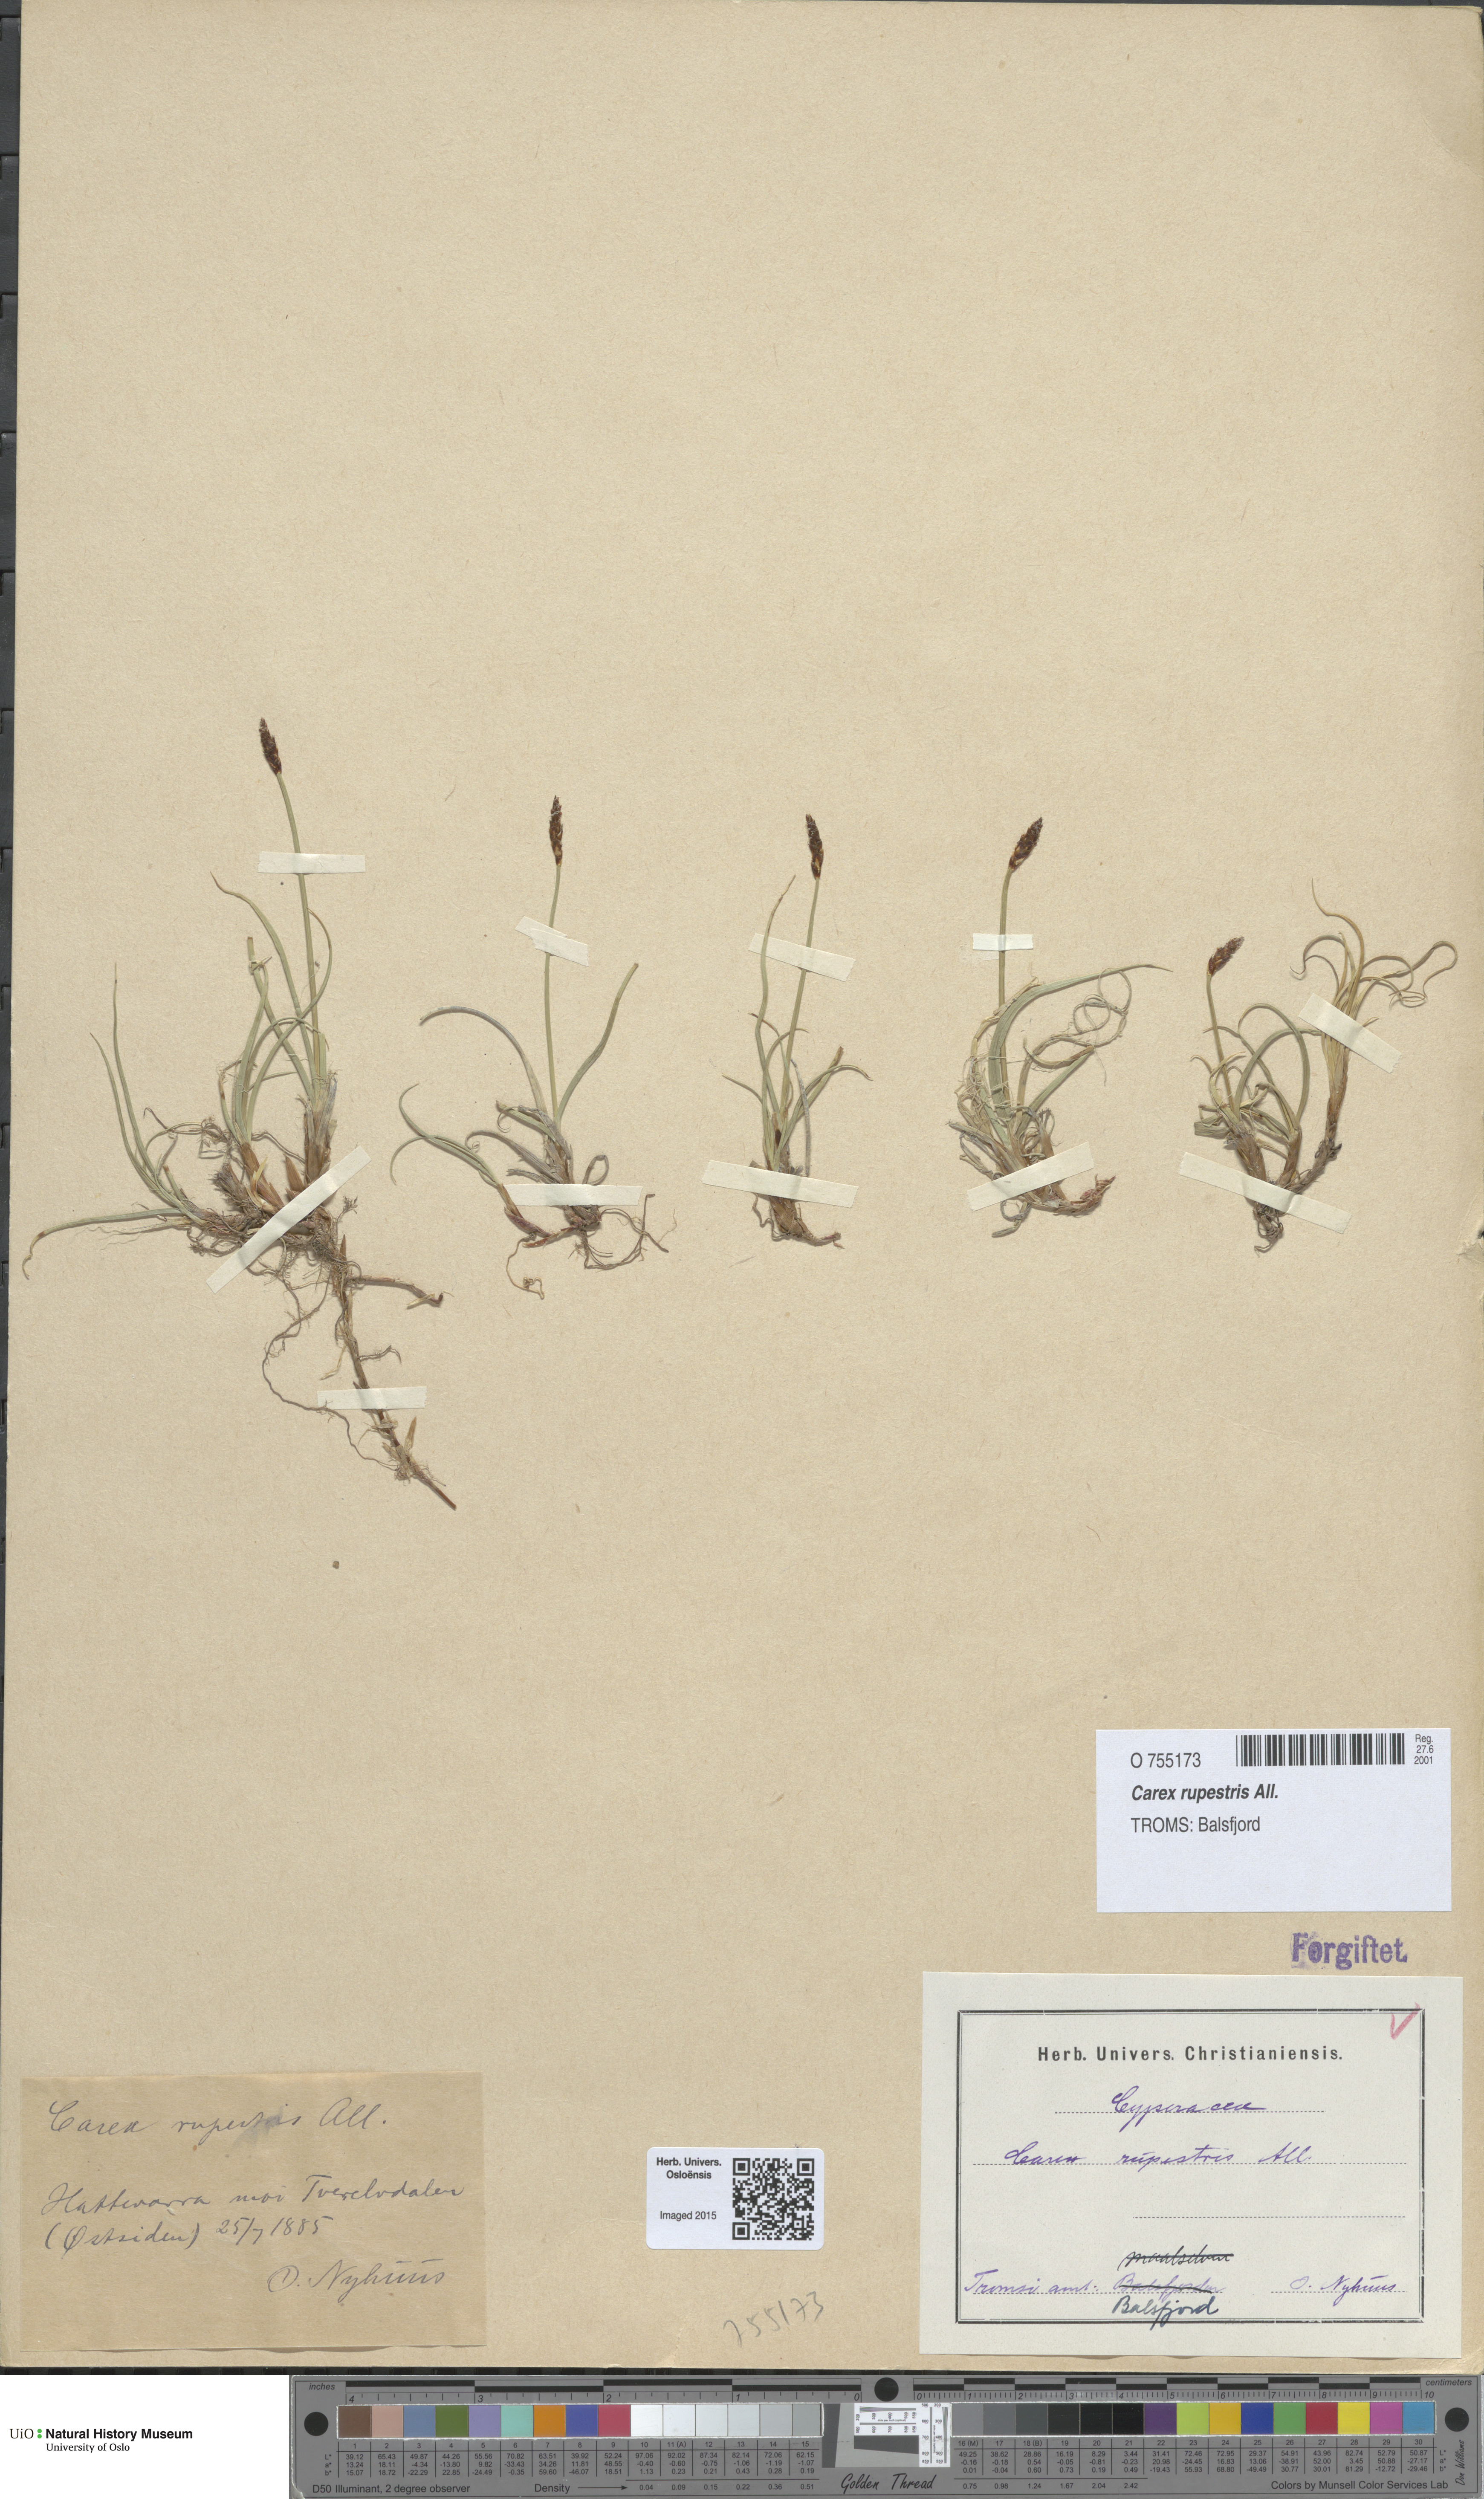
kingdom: Plantae
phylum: Tracheophyta
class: Liliopsida
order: Poales
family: Cyperaceae
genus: Carex
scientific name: Carex rupestris
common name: Rock sedge
